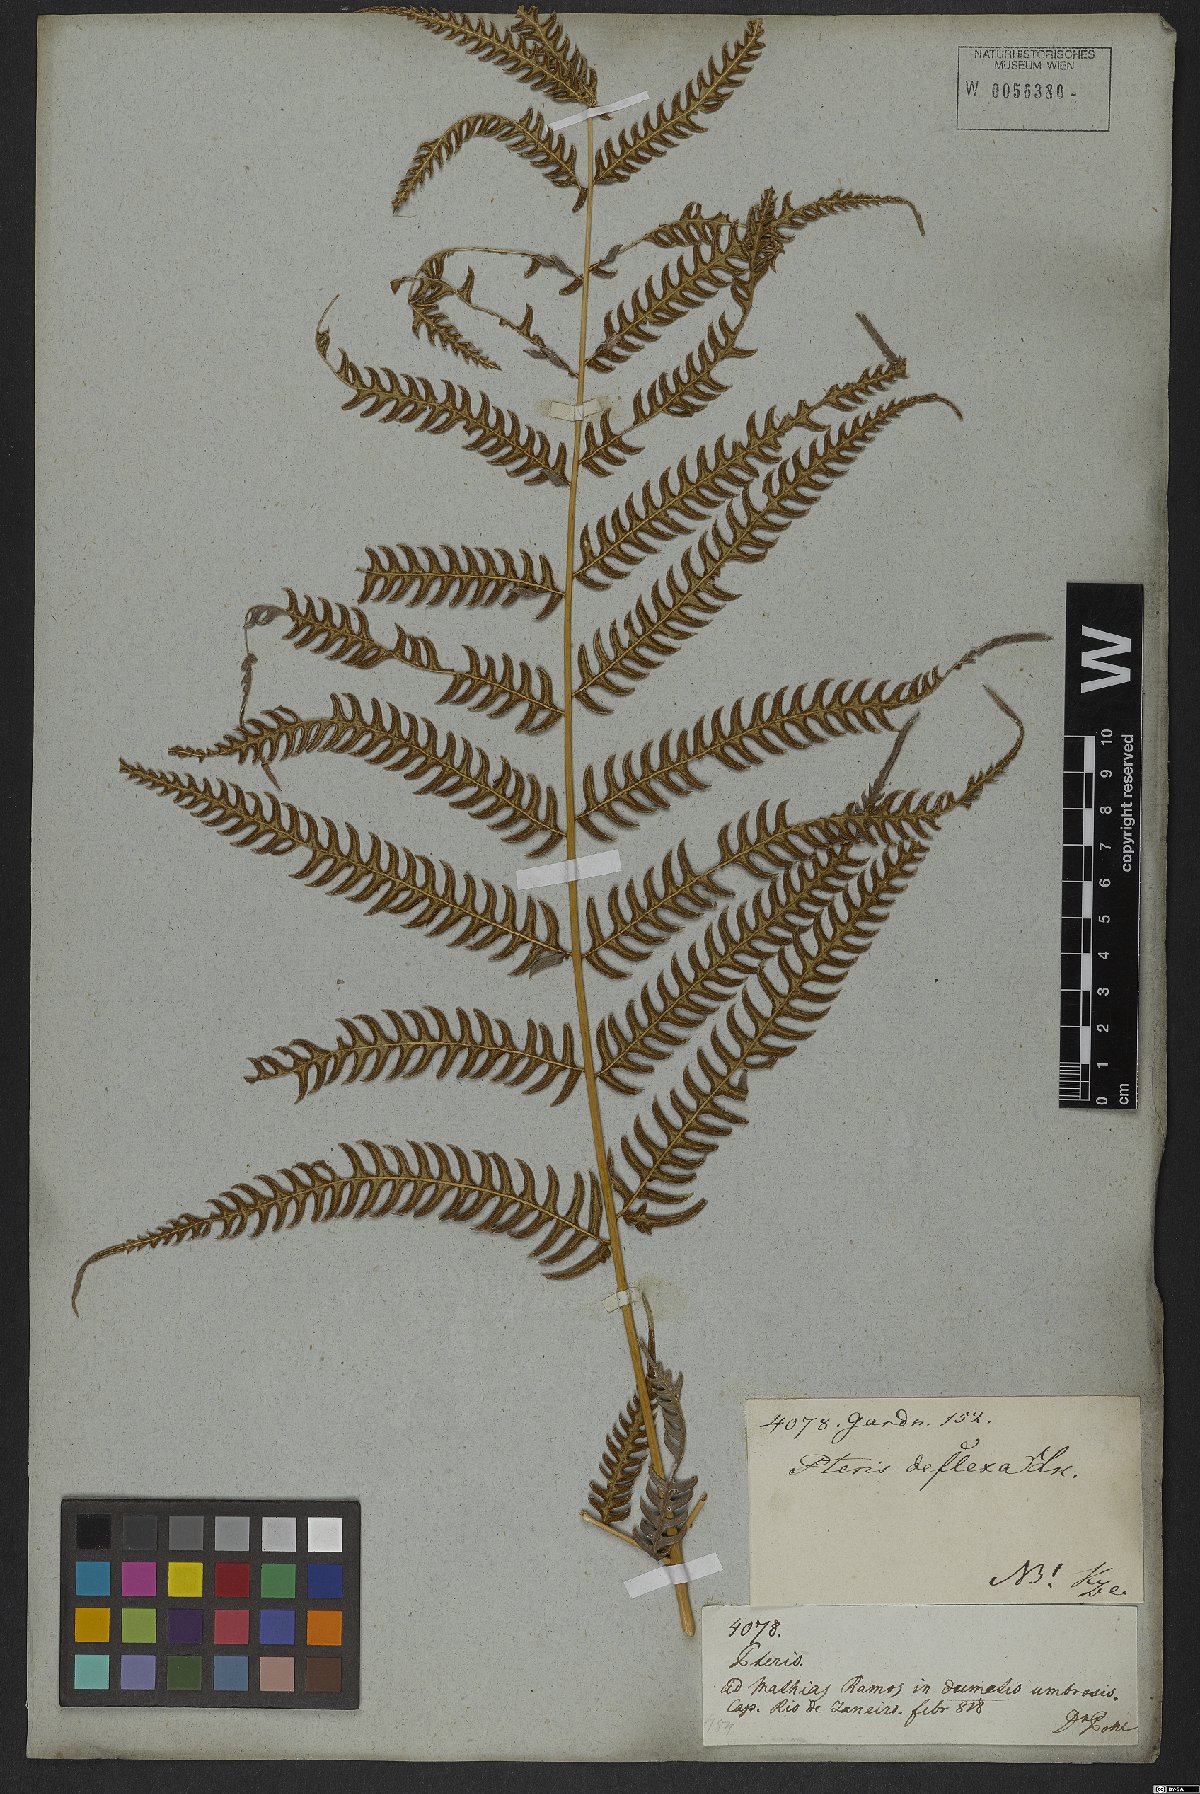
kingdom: Plantae
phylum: Tracheophyta
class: Polypodiopsida
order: Polypodiales
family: Pteridaceae
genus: Pteris
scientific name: Pteris deflexa
